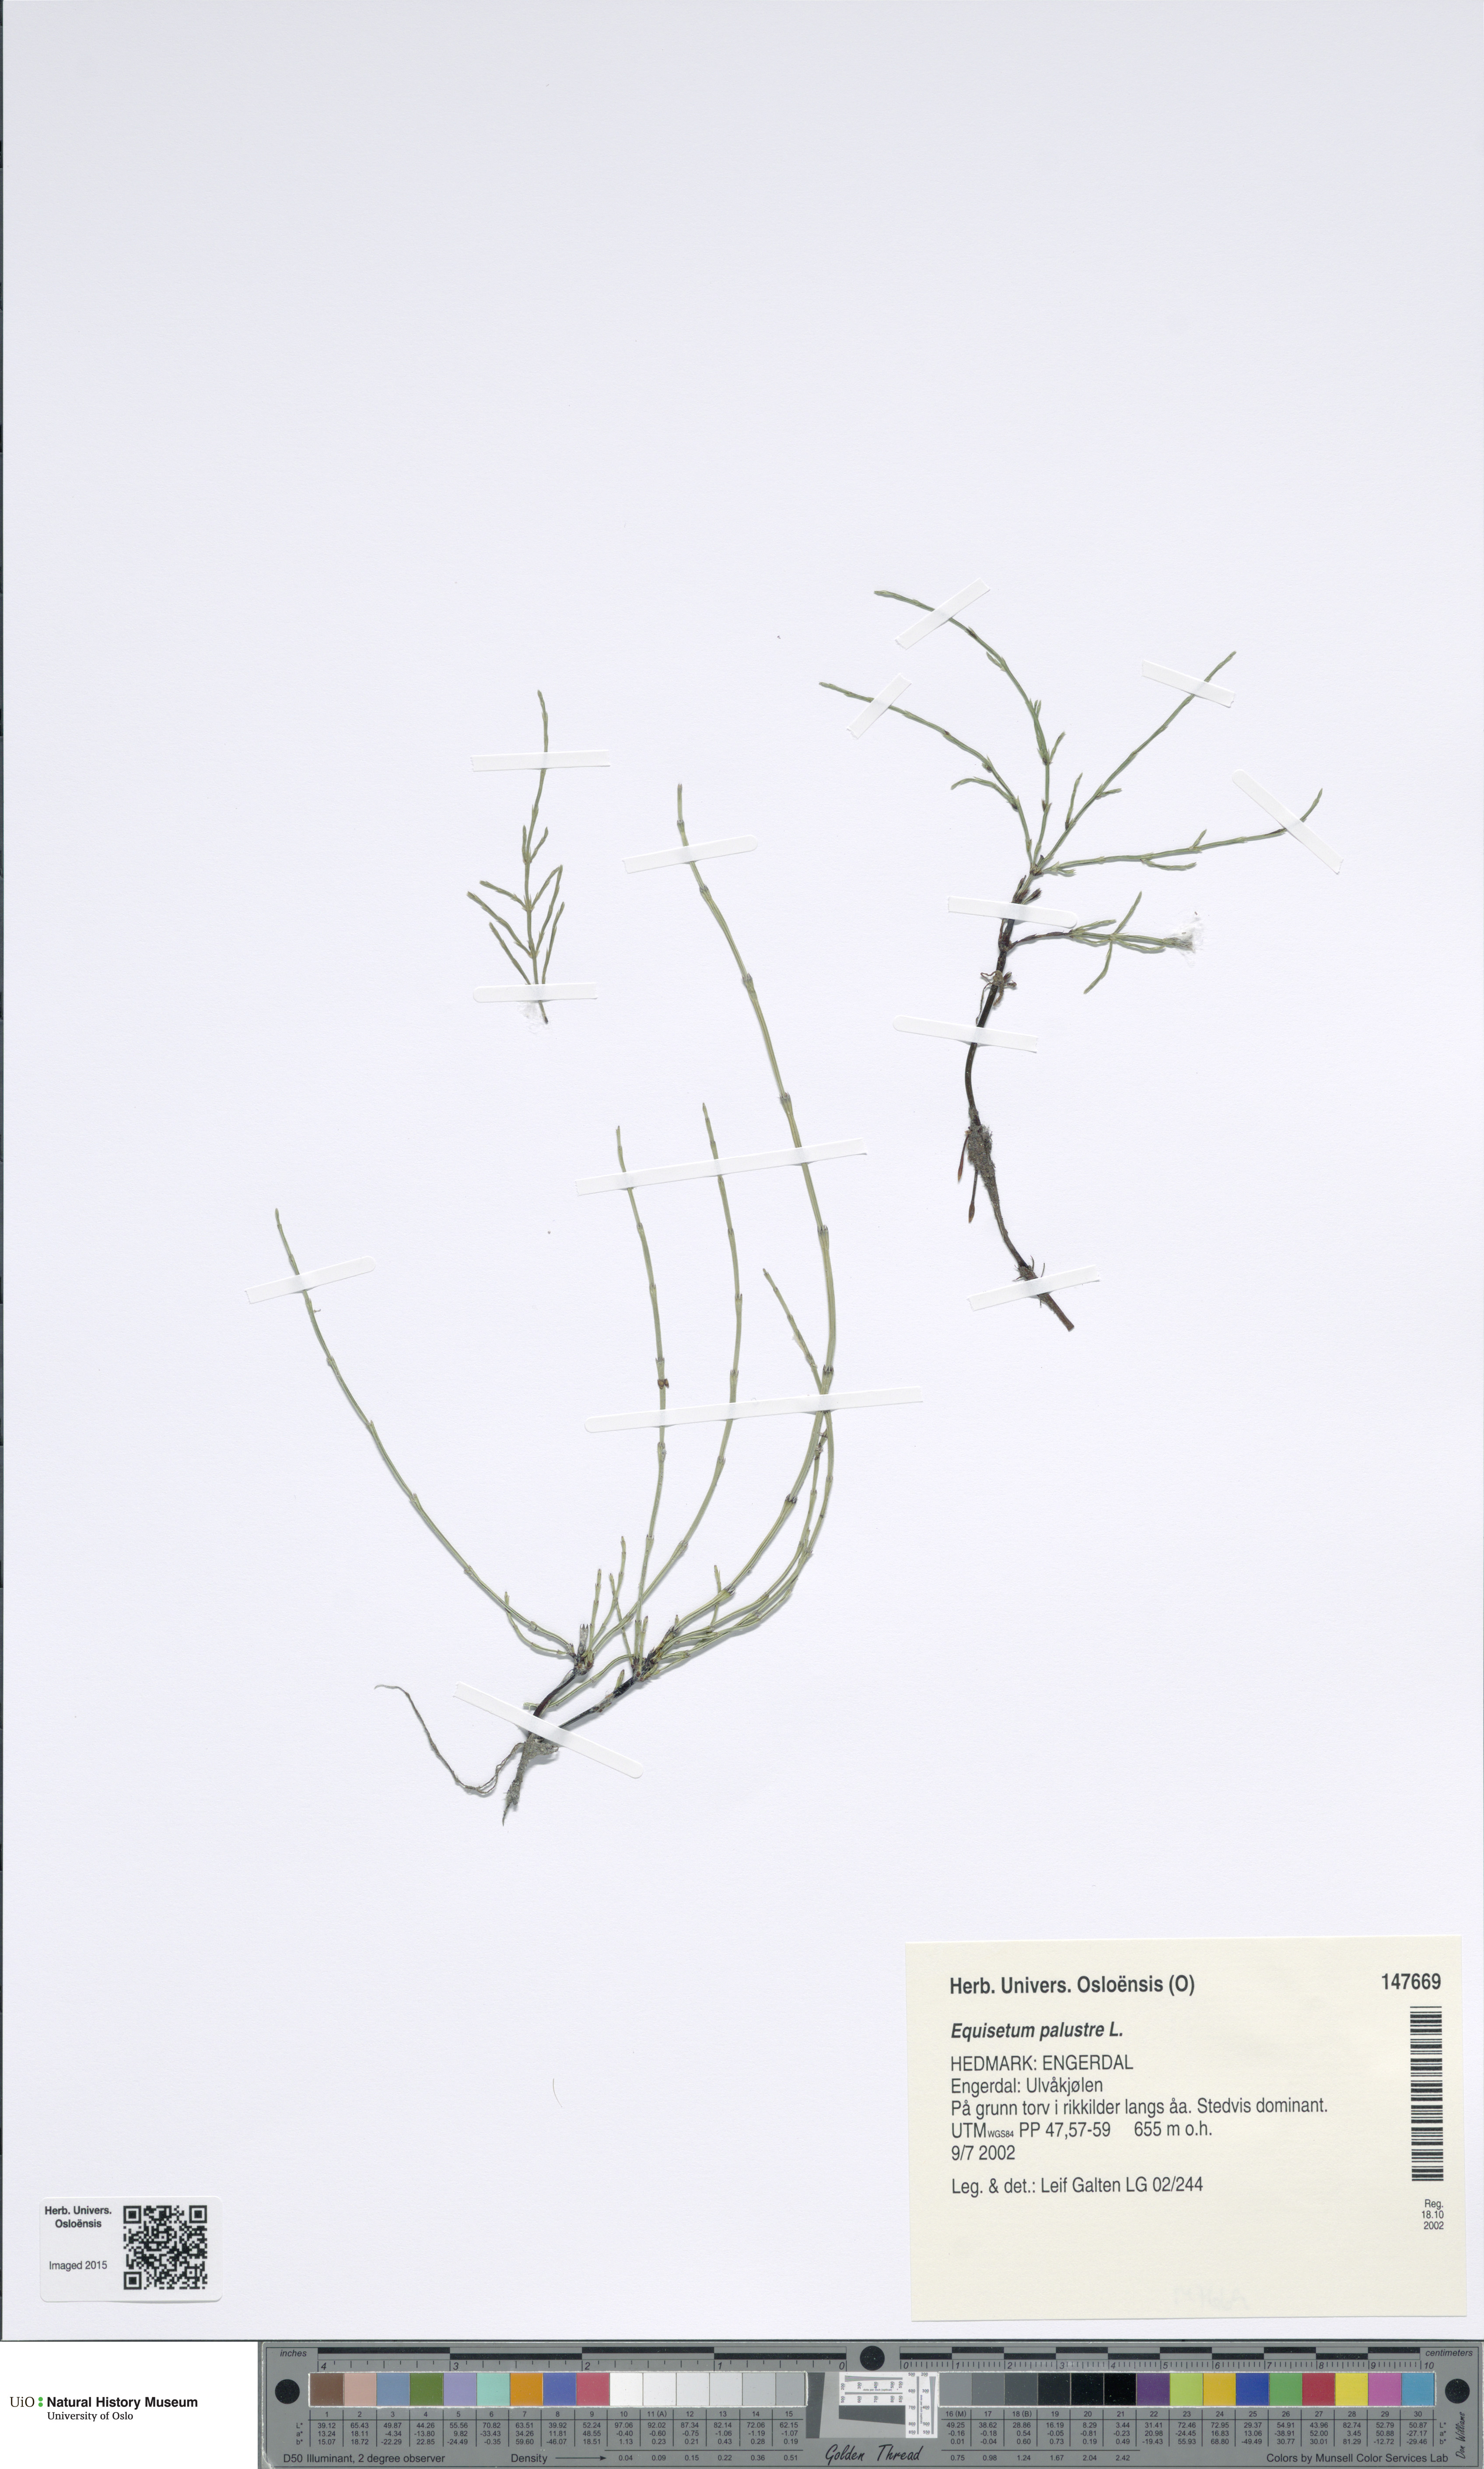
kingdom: Plantae
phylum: Tracheophyta
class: Polypodiopsida
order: Equisetales
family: Equisetaceae
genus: Equisetum
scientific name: Equisetum palustre
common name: Marsh horsetail
